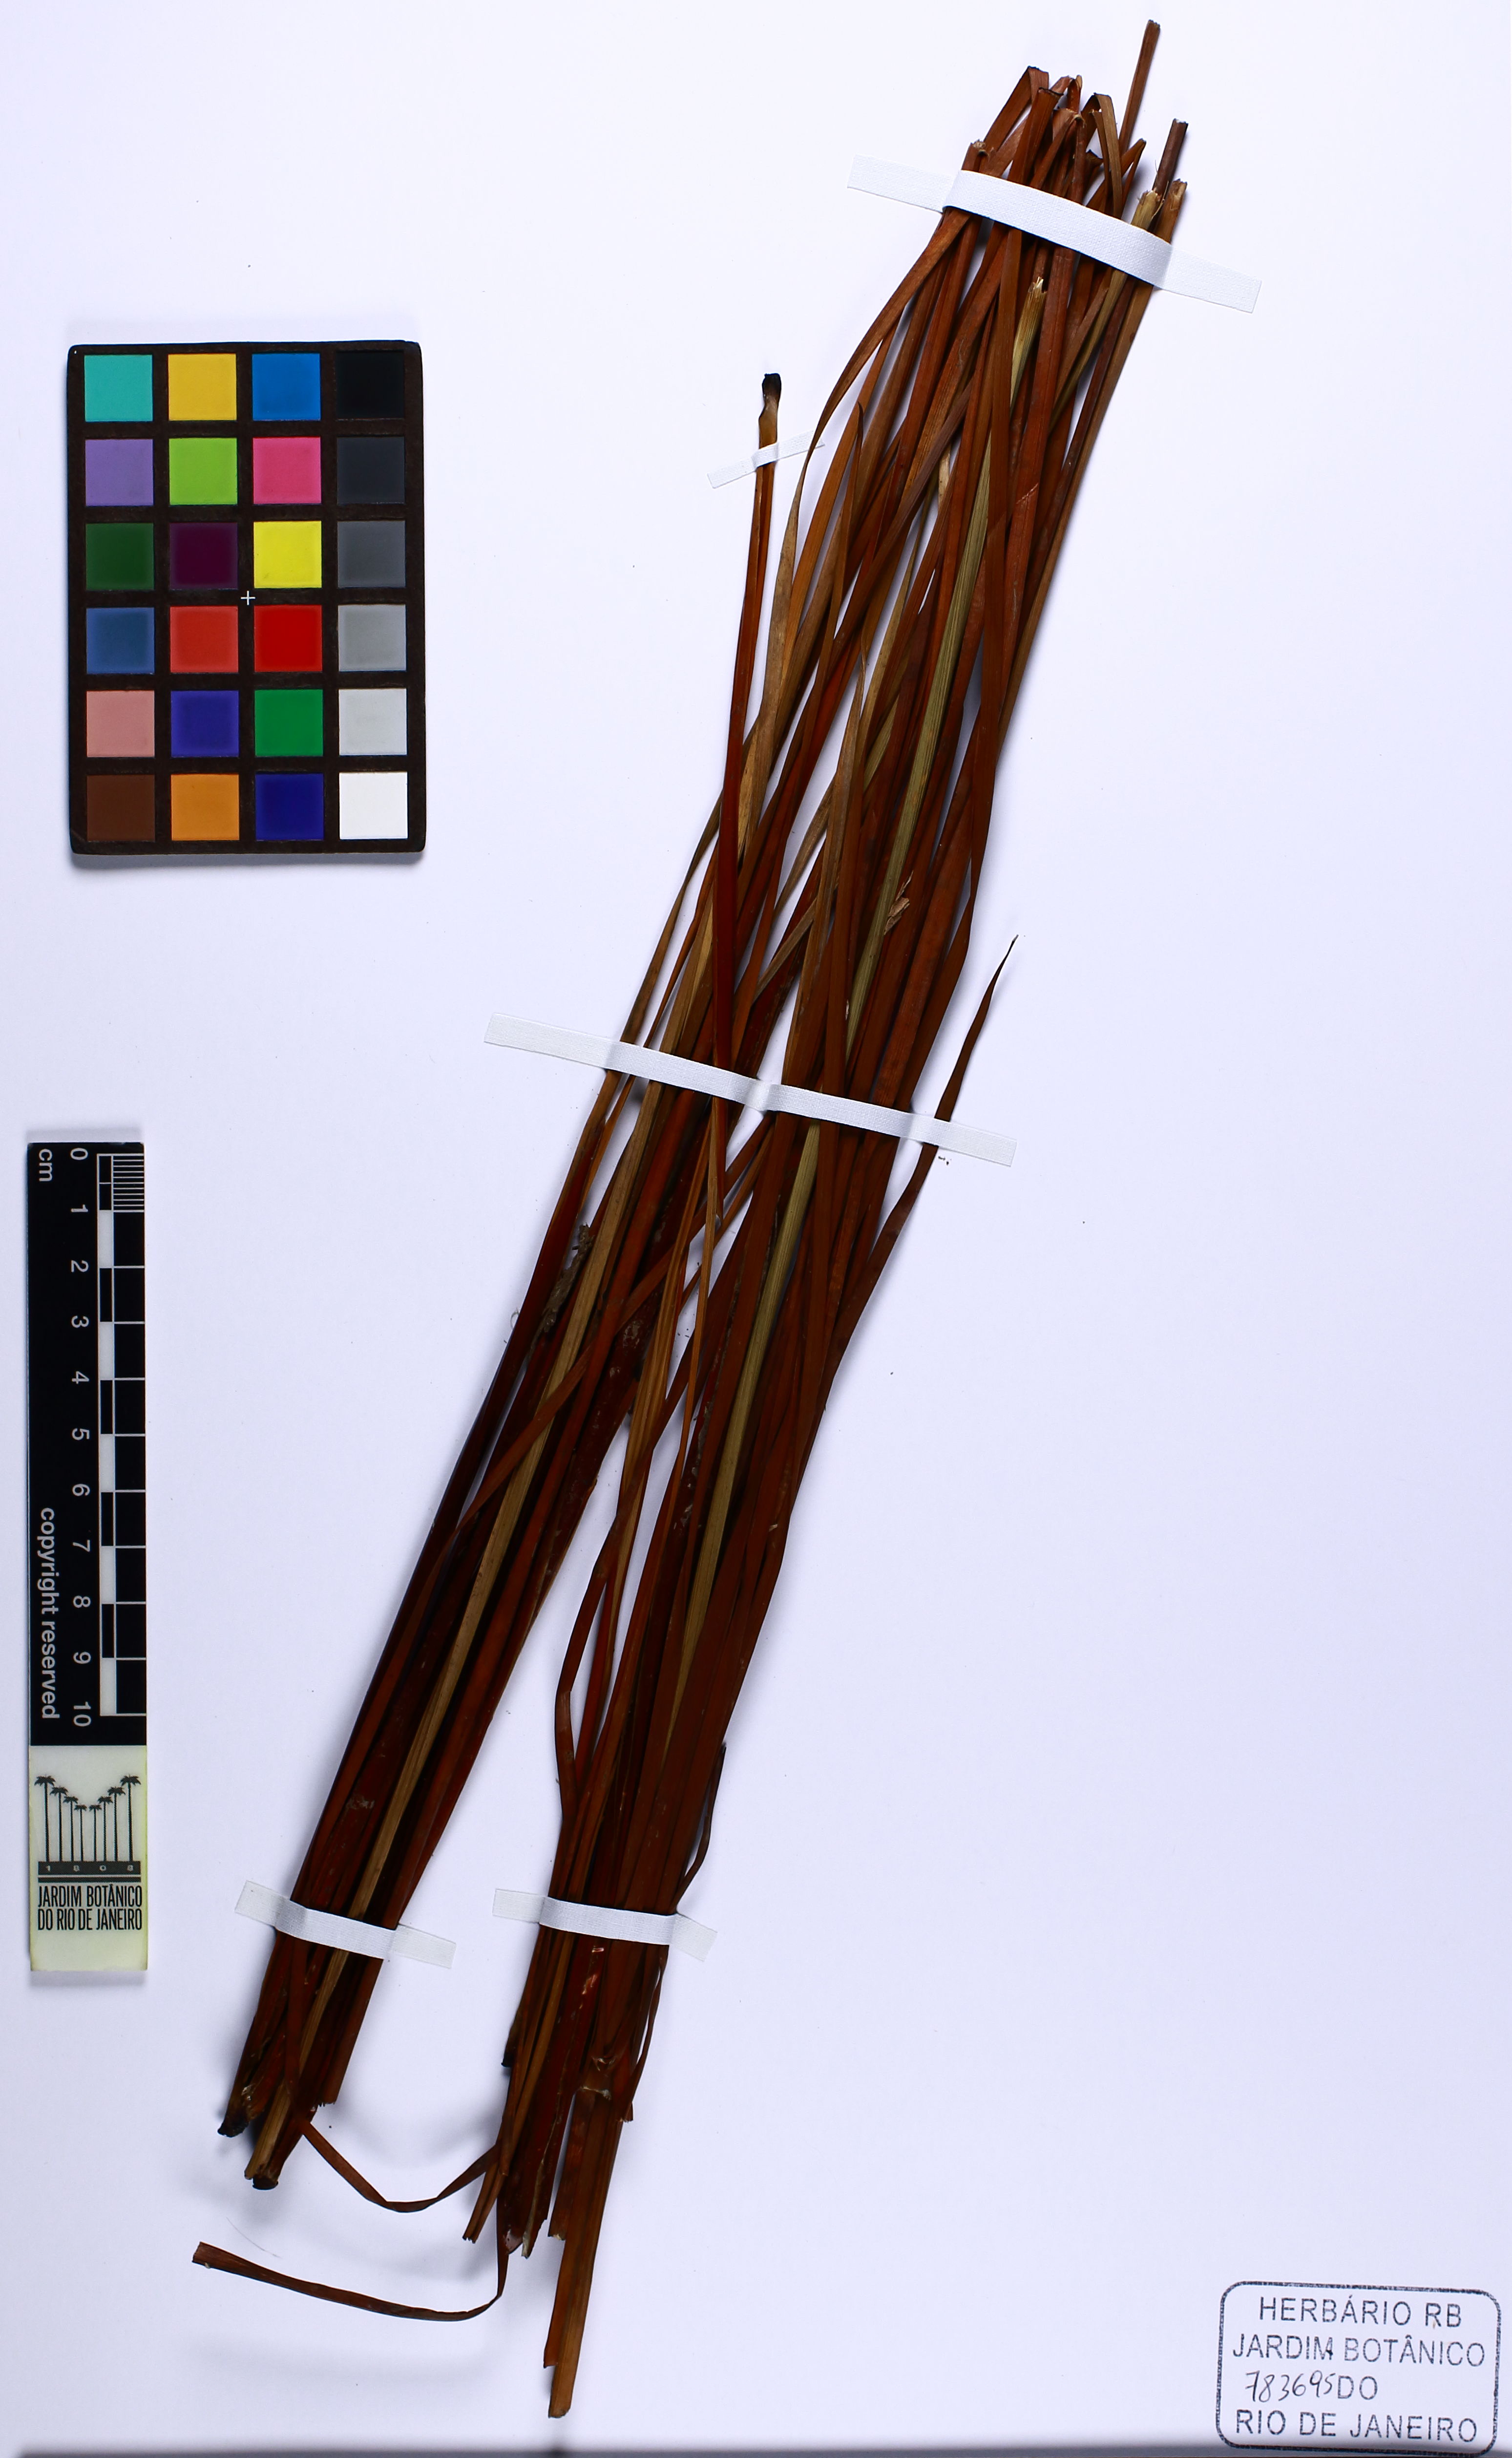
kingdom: Plantae
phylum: Tracheophyta
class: Liliopsida
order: Poales
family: Xyridaceae
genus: Xyris
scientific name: Xyris piraquarae
